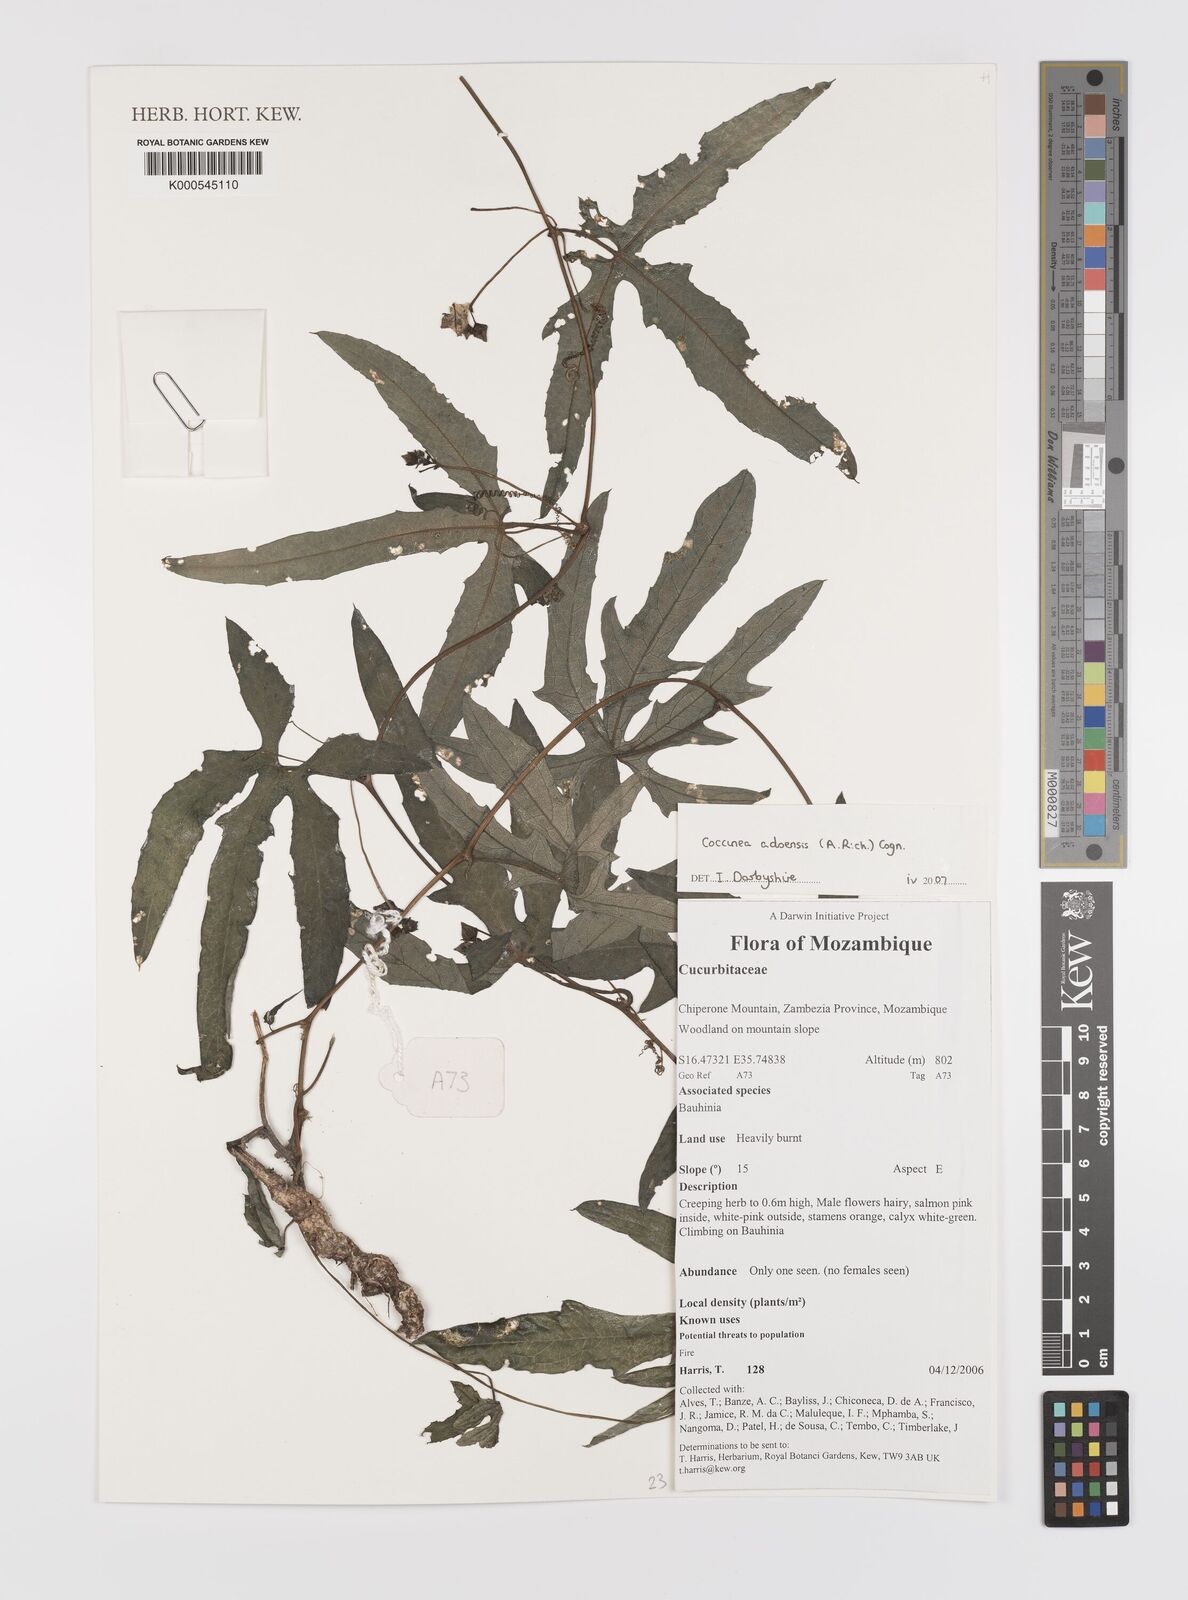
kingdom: Plantae
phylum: Tracheophyta
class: Magnoliopsida
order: Cucurbitales
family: Cucurbitaceae
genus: Coccinia
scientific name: Coccinia adoensis
